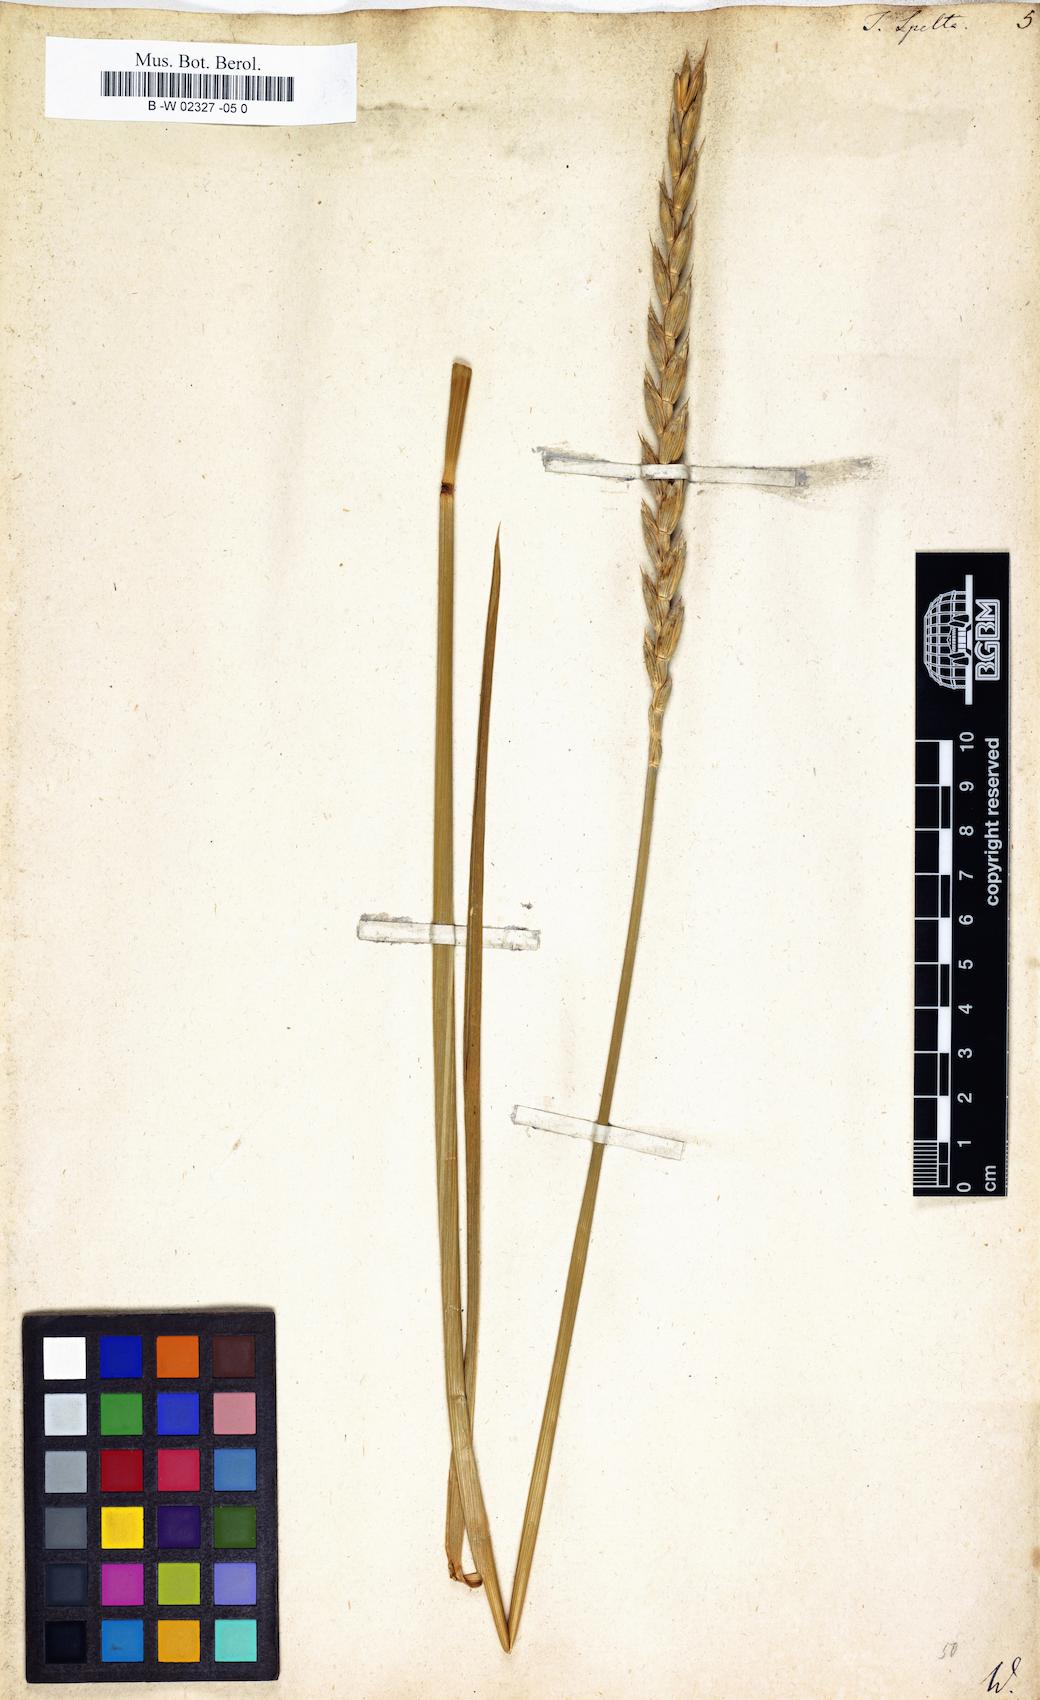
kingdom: Plantae
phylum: Tracheophyta
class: Liliopsida
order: Poales
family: Poaceae
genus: Triticum
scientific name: Triticum aestivum
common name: Common wheat
